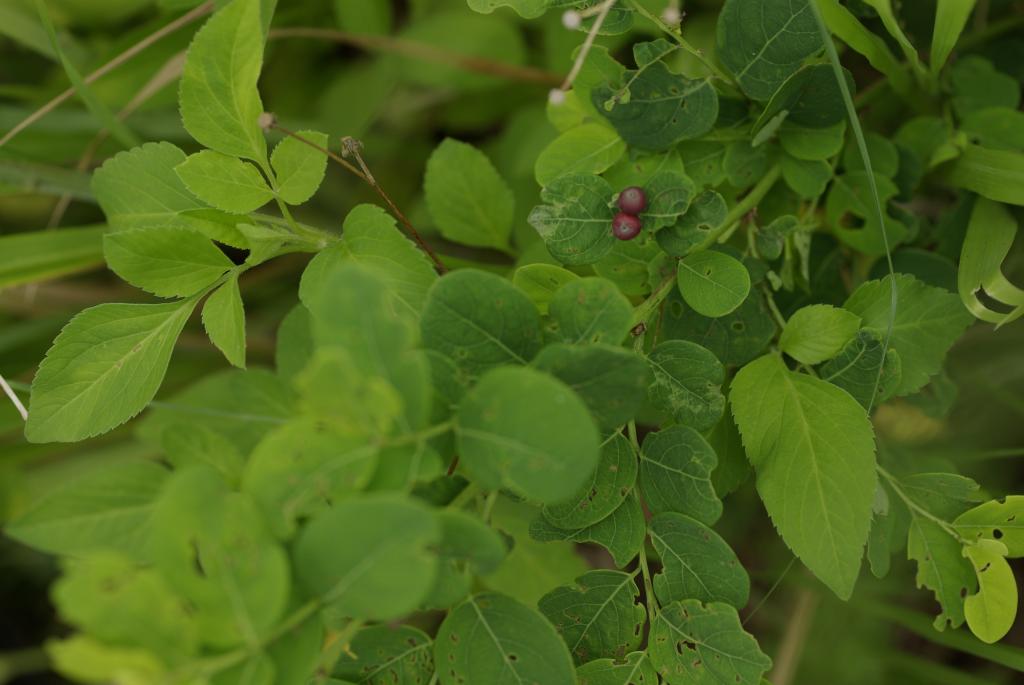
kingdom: Plantae
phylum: Tracheophyta
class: Magnoliopsida
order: Malpighiales
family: Phyllanthaceae
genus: Breynia
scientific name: Breynia officinalis
